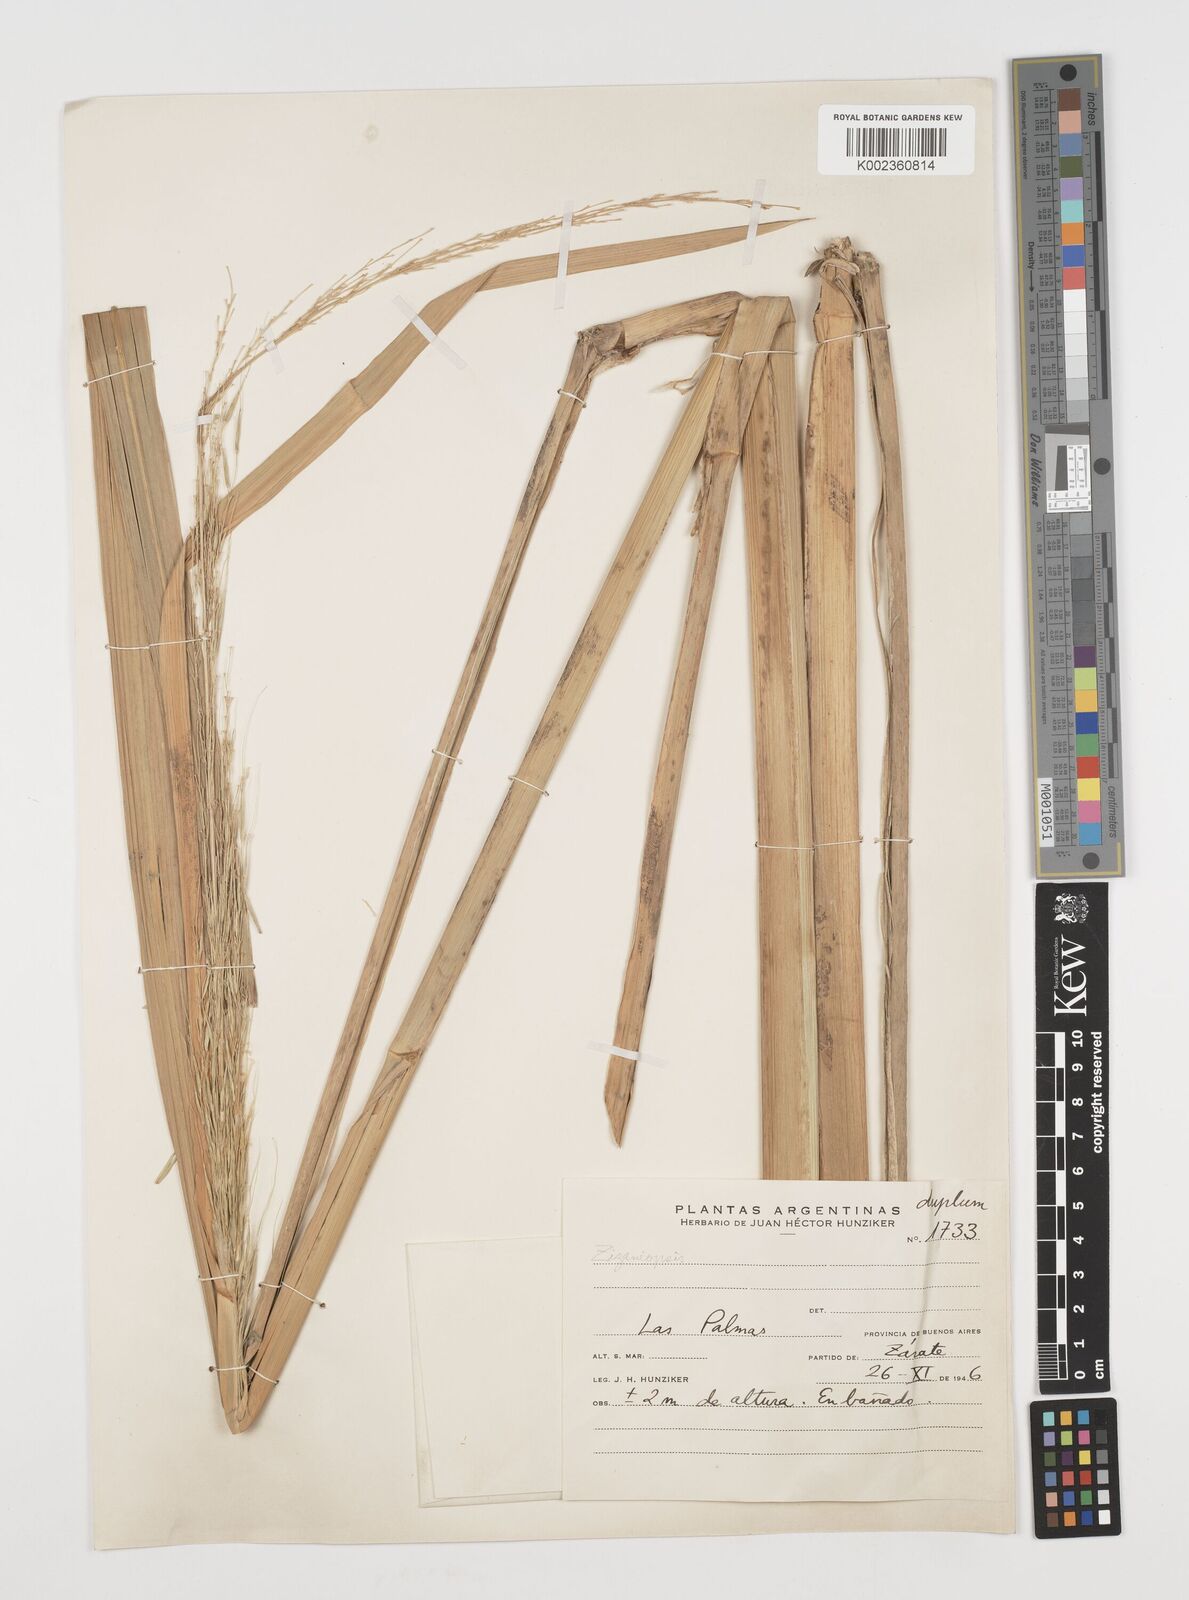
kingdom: Plantae
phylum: Tracheophyta
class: Liliopsida
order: Poales
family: Poaceae
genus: Zizaniopsis
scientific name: Zizaniopsis bonariensis
